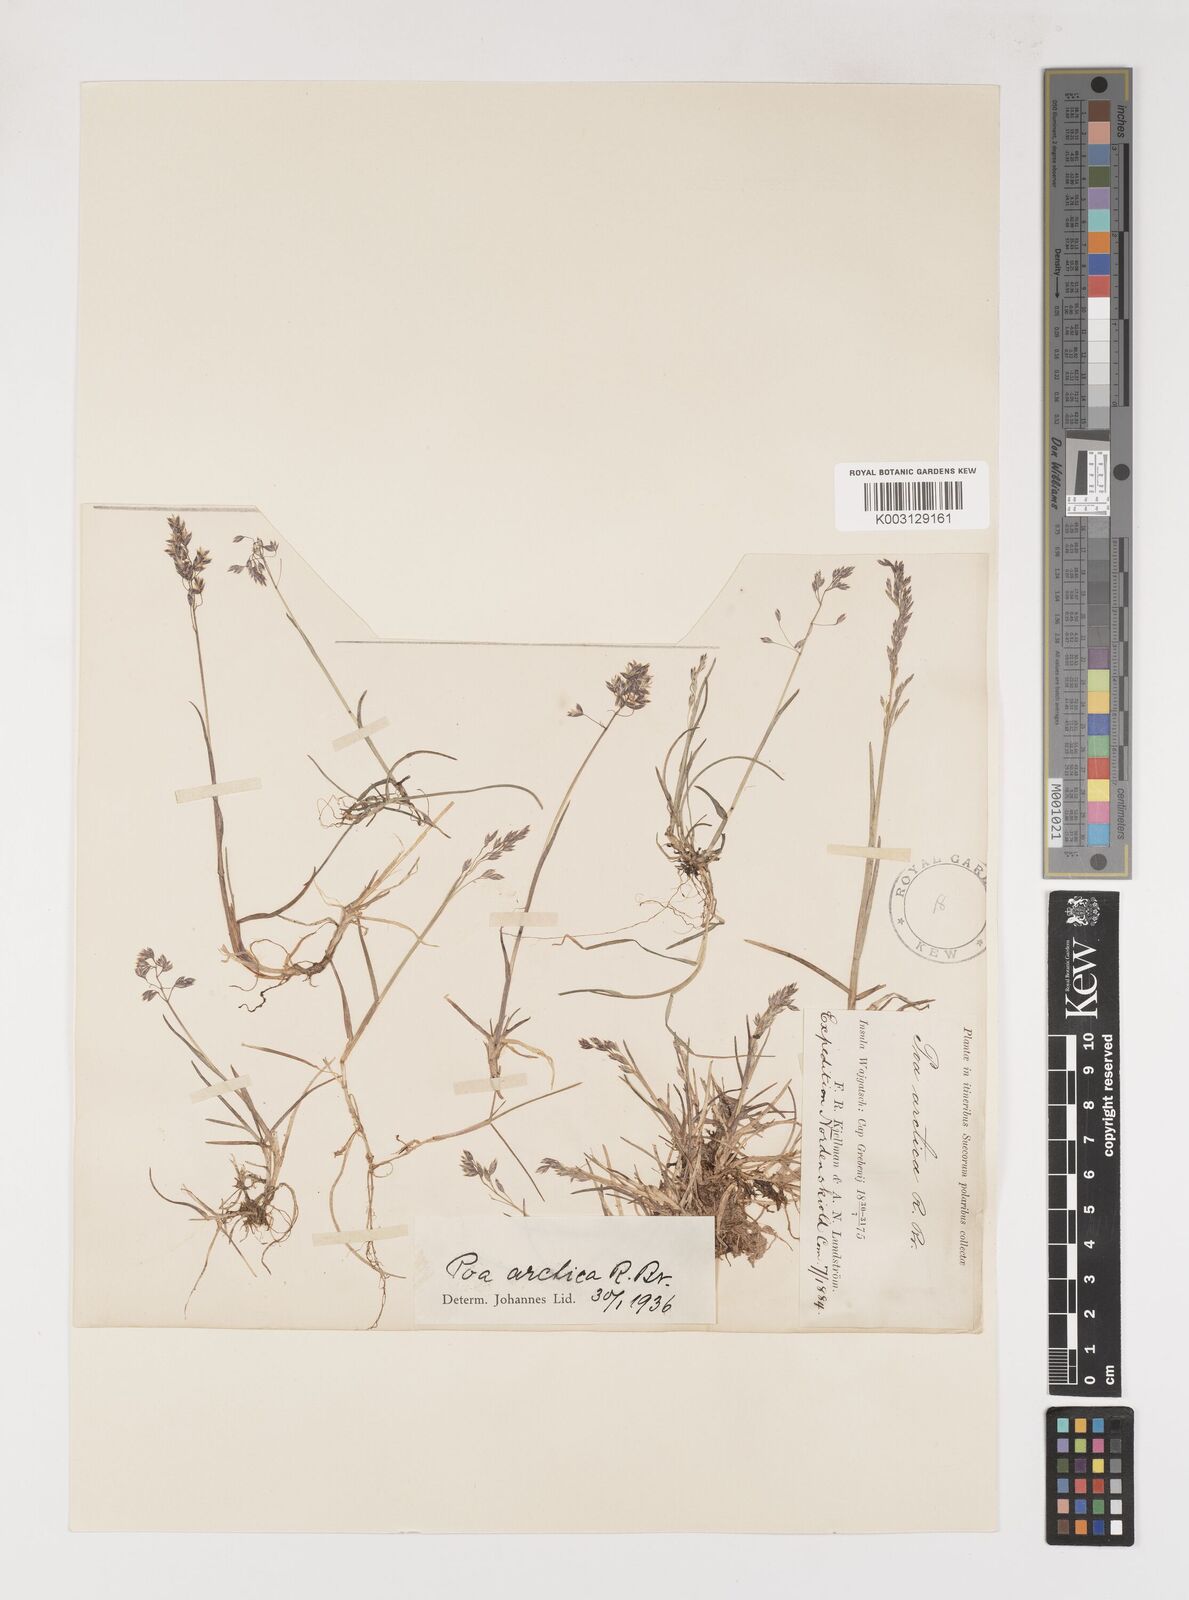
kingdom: Plantae
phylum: Tracheophyta
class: Liliopsida
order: Poales
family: Poaceae
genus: Poa
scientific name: Poa arctica
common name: Arctic bluegrass
